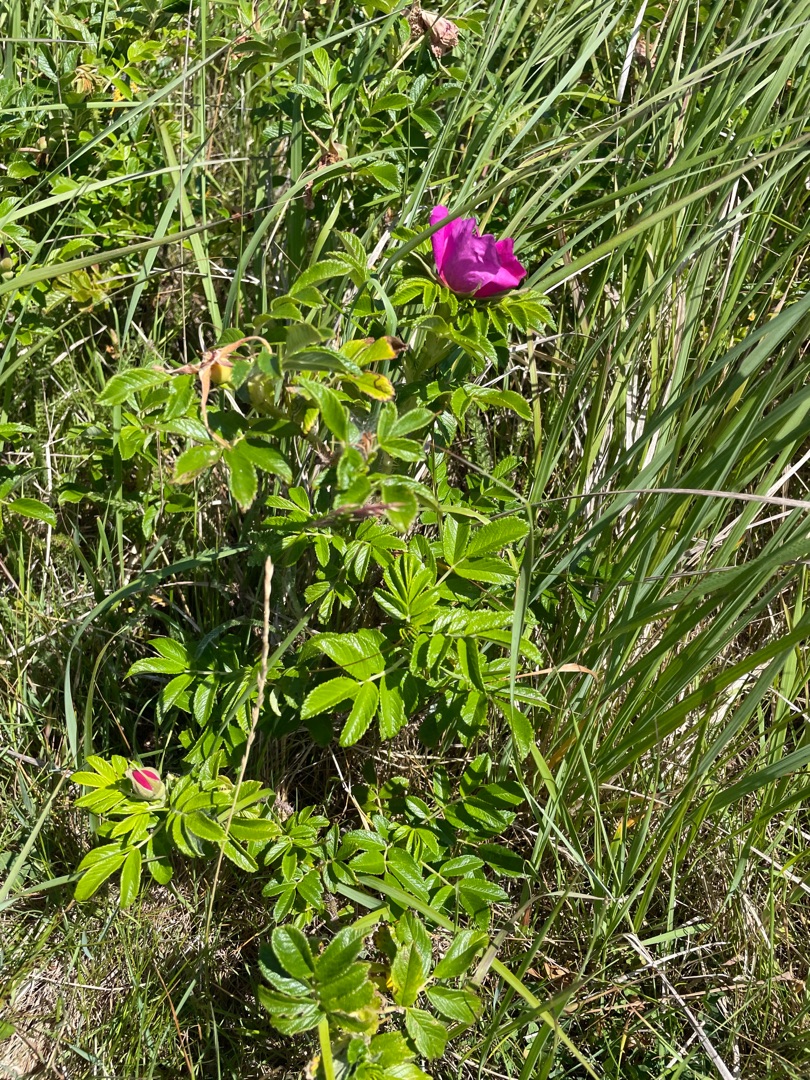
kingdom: Plantae
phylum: Tracheophyta
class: Magnoliopsida
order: Rosales
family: Rosaceae
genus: Rosa
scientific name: Rosa rugosa
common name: Rynket rose
